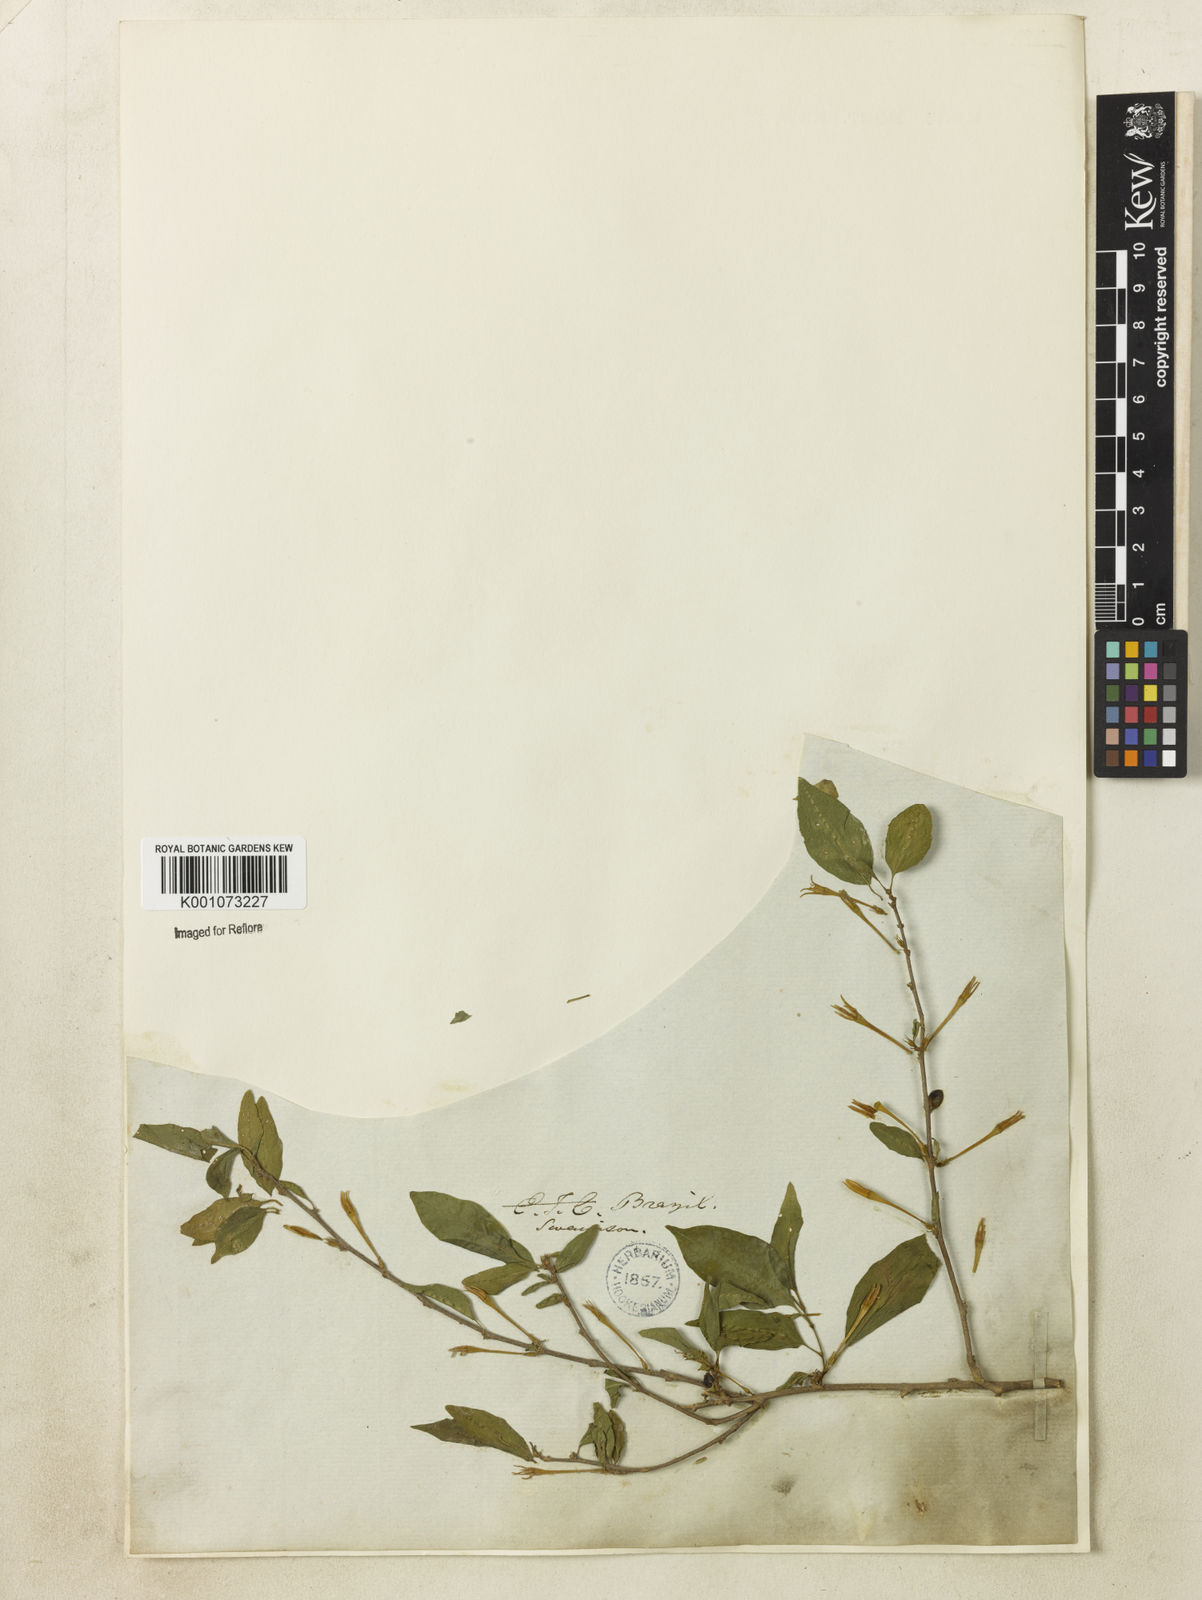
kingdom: Plantae
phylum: Tracheophyta
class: Magnoliopsida
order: Solanales
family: Solanaceae
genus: Cestrum
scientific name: Cestrum
